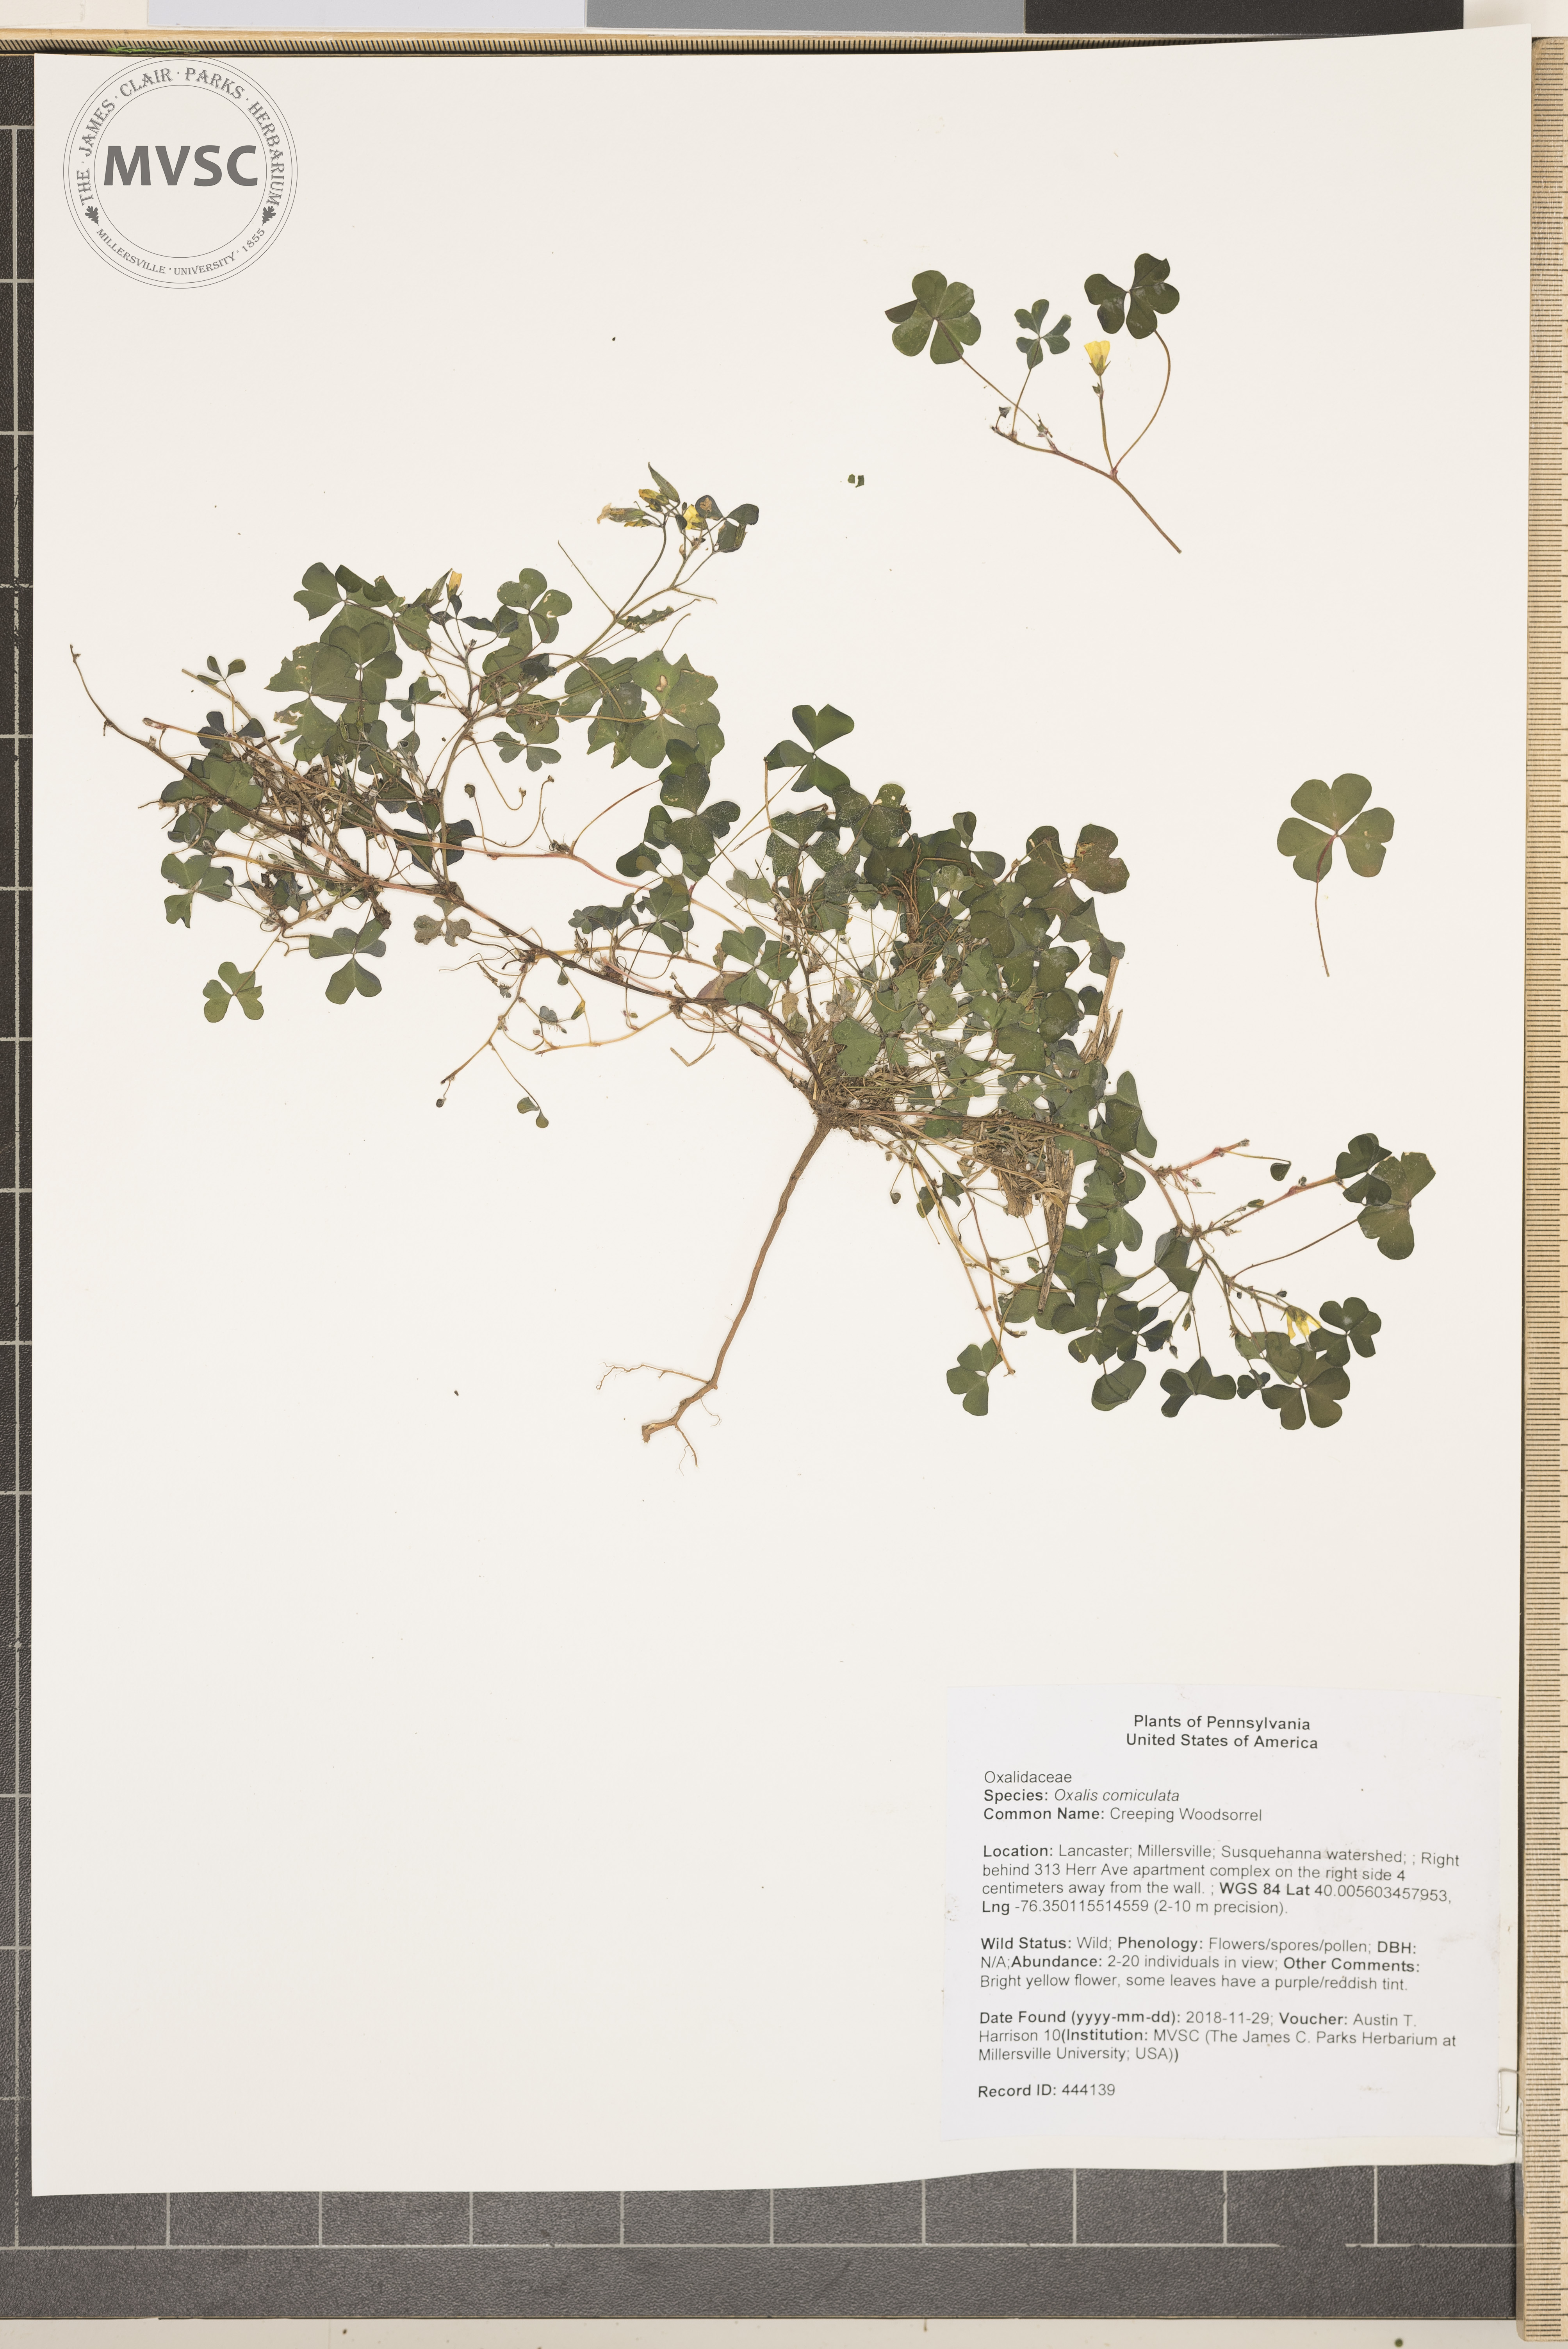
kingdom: Plantae
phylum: Tracheophyta
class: Magnoliopsida
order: Oxalidales
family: Oxalidaceae
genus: Oxalis
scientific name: Oxalis corniculata
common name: Creeping Woodsorrel
